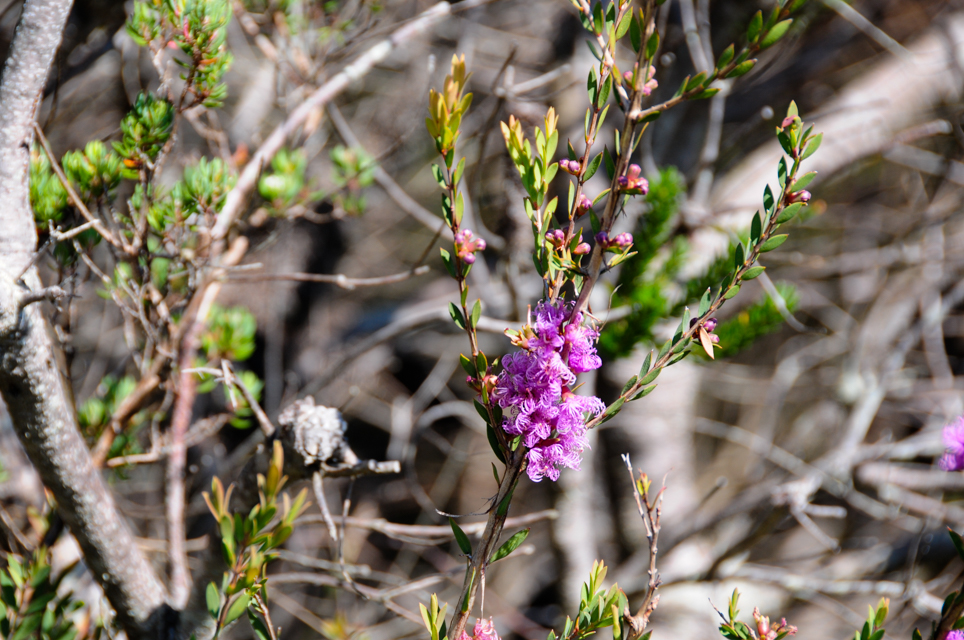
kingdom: Plantae
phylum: Tracheophyta
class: Magnoliopsida
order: Myrtales
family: Myrtaceae
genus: Melaleuca
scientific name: Melaleuca thymifolia
